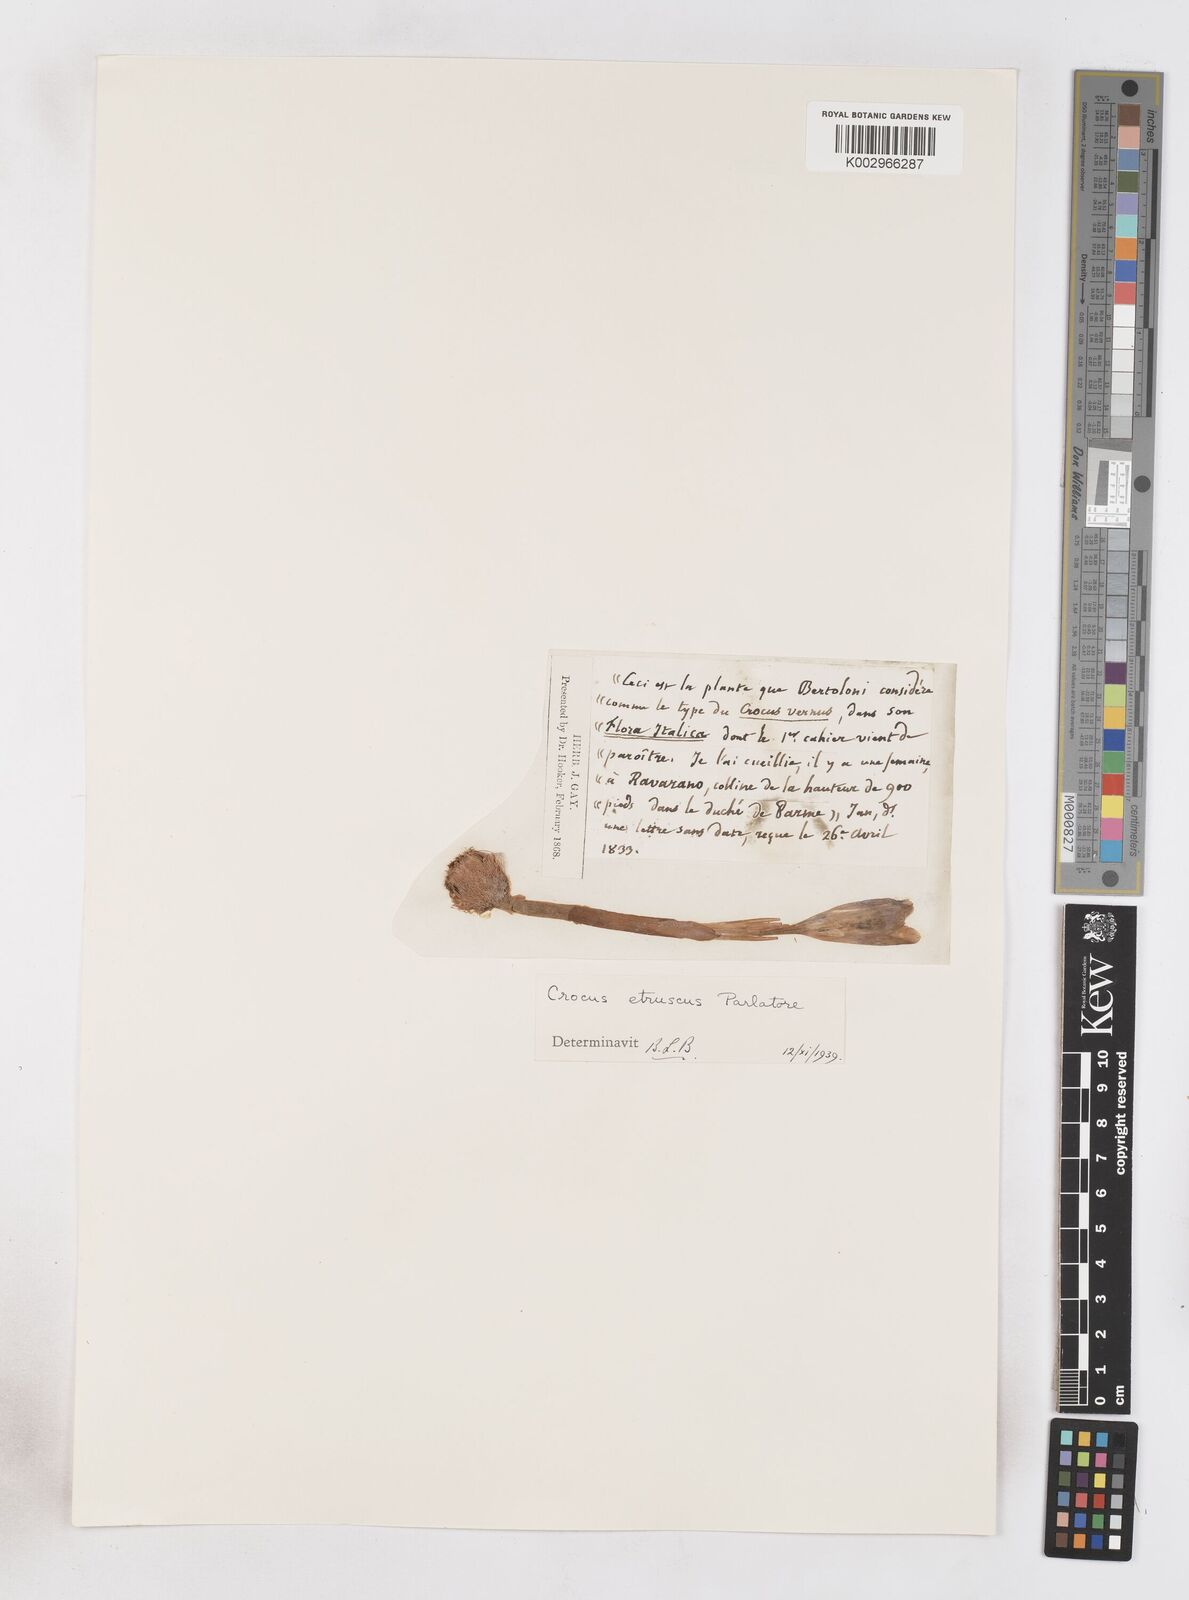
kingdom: Plantae
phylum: Tracheophyta
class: Liliopsida
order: Asparagales
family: Iridaceae
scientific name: Iridaceae
